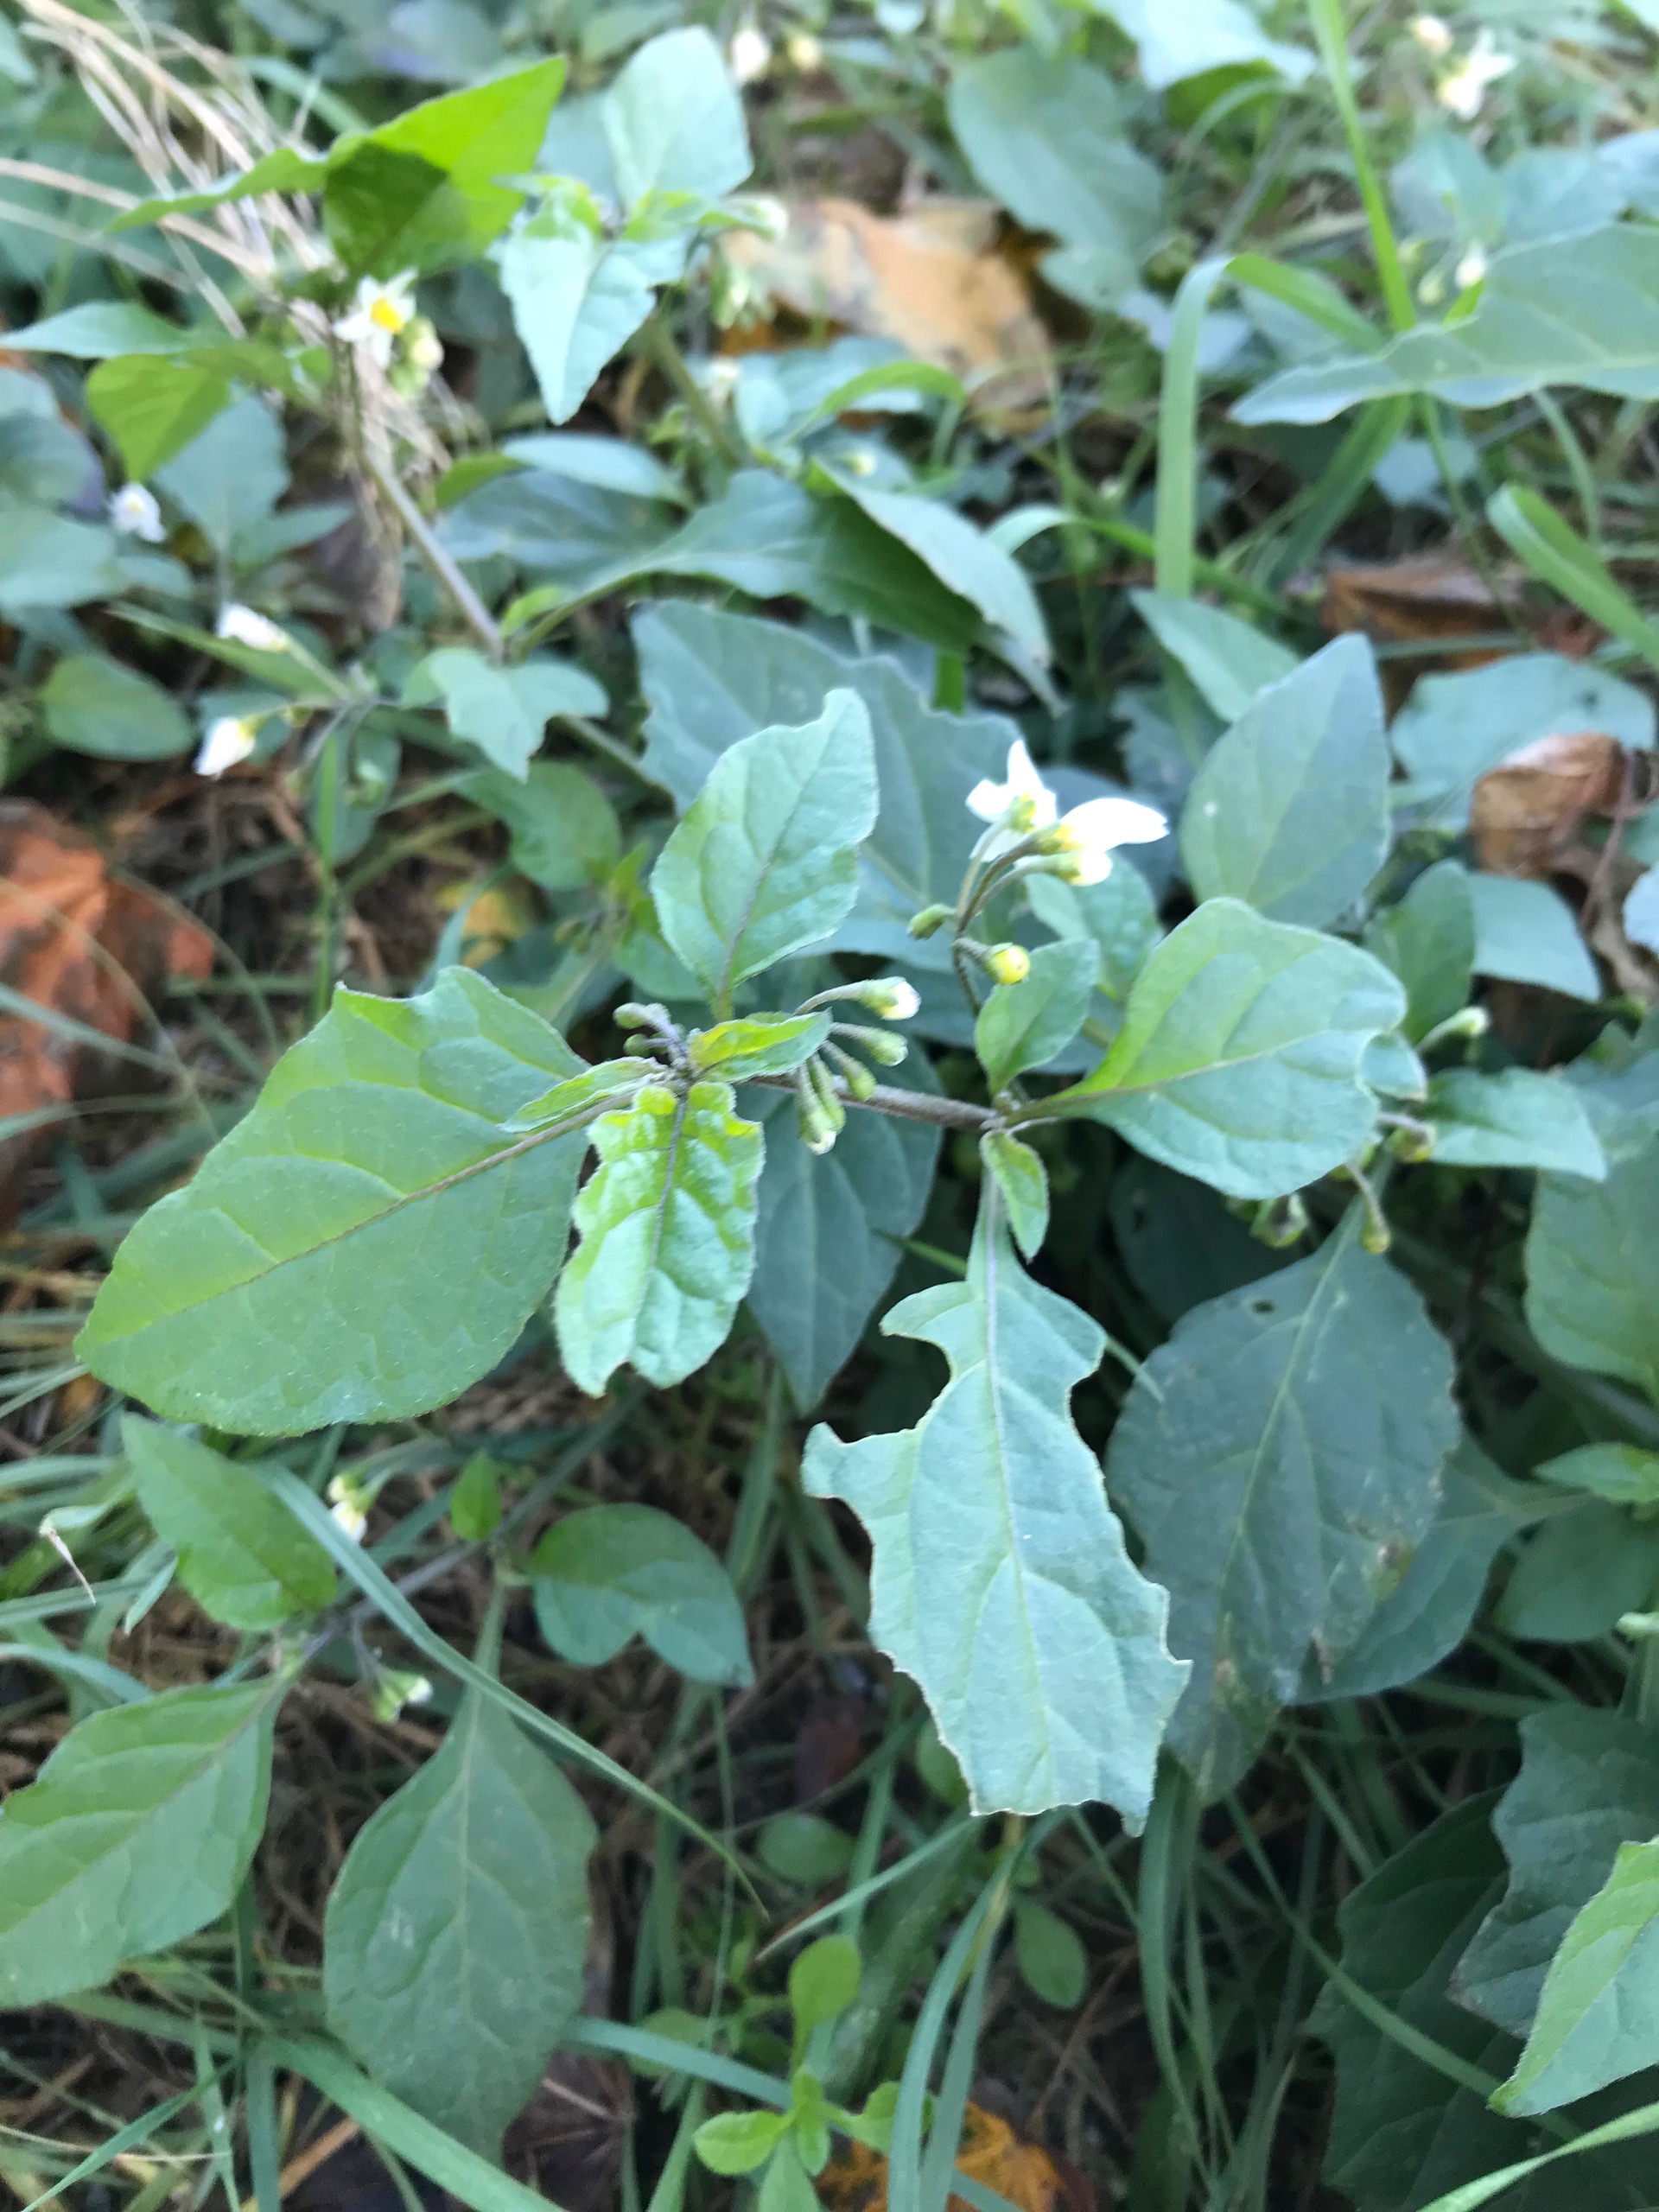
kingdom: Plantae
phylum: Tracheophyta
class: Magnoliopsida
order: Solanales
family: Solanaceae
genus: Solanum
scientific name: Solanum nigrum
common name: Sort natskygge
